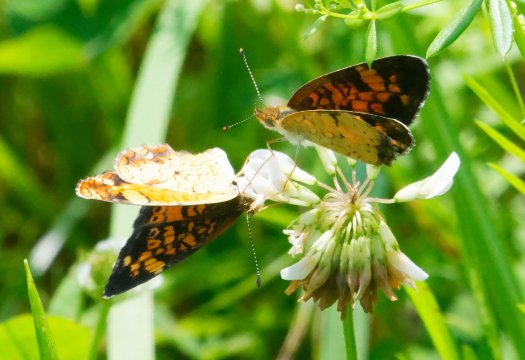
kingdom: Animalia
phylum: Arthropoda
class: Insecta
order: Lepidoptera
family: Nymphalidae
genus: Phyciodes
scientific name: Phyciodes tharos
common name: Pearl Crescent
